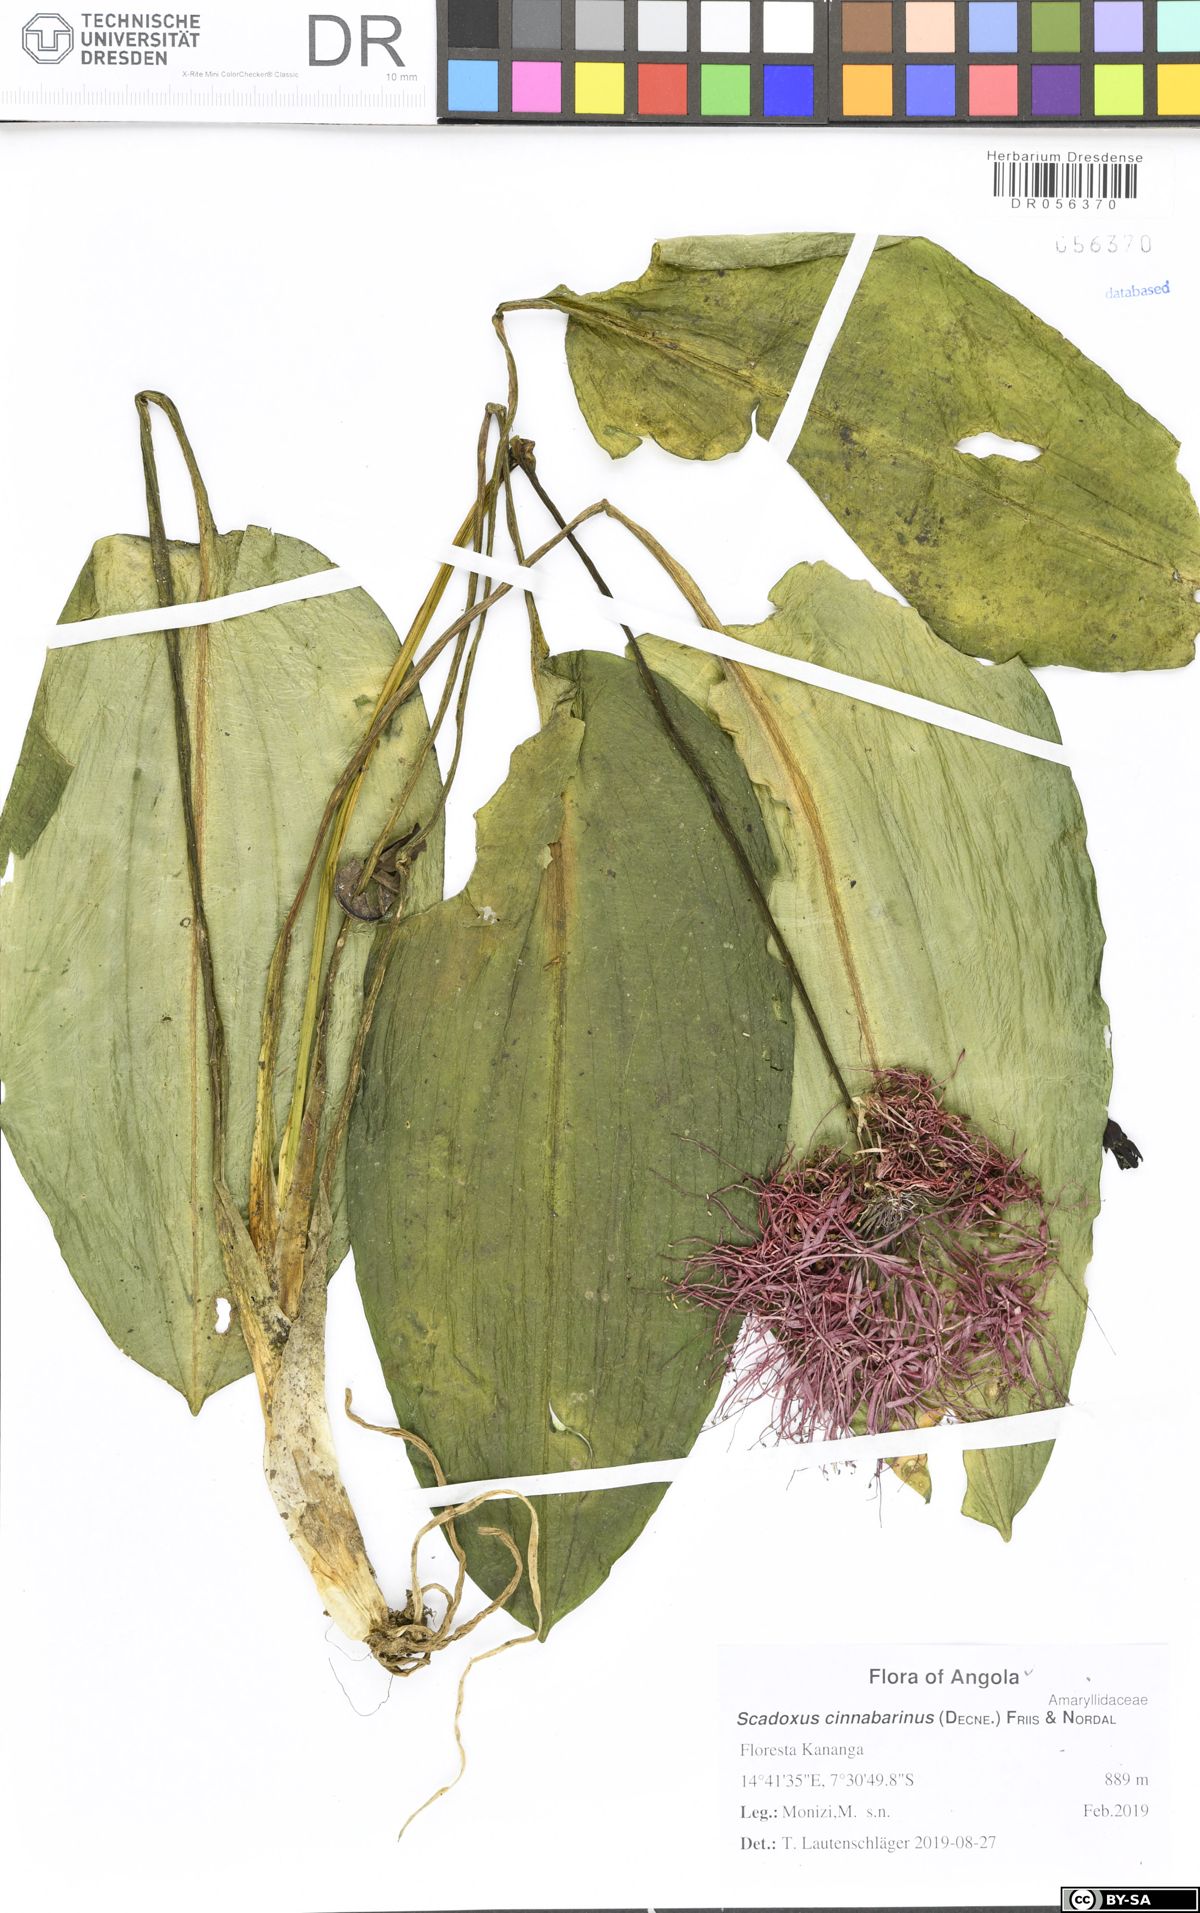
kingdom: Plantae
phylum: Tracheophyta
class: Liliopsida
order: Asparagales
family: Amaryllidaceae
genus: Scadoxus
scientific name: Scadoxus cinnabarinus
